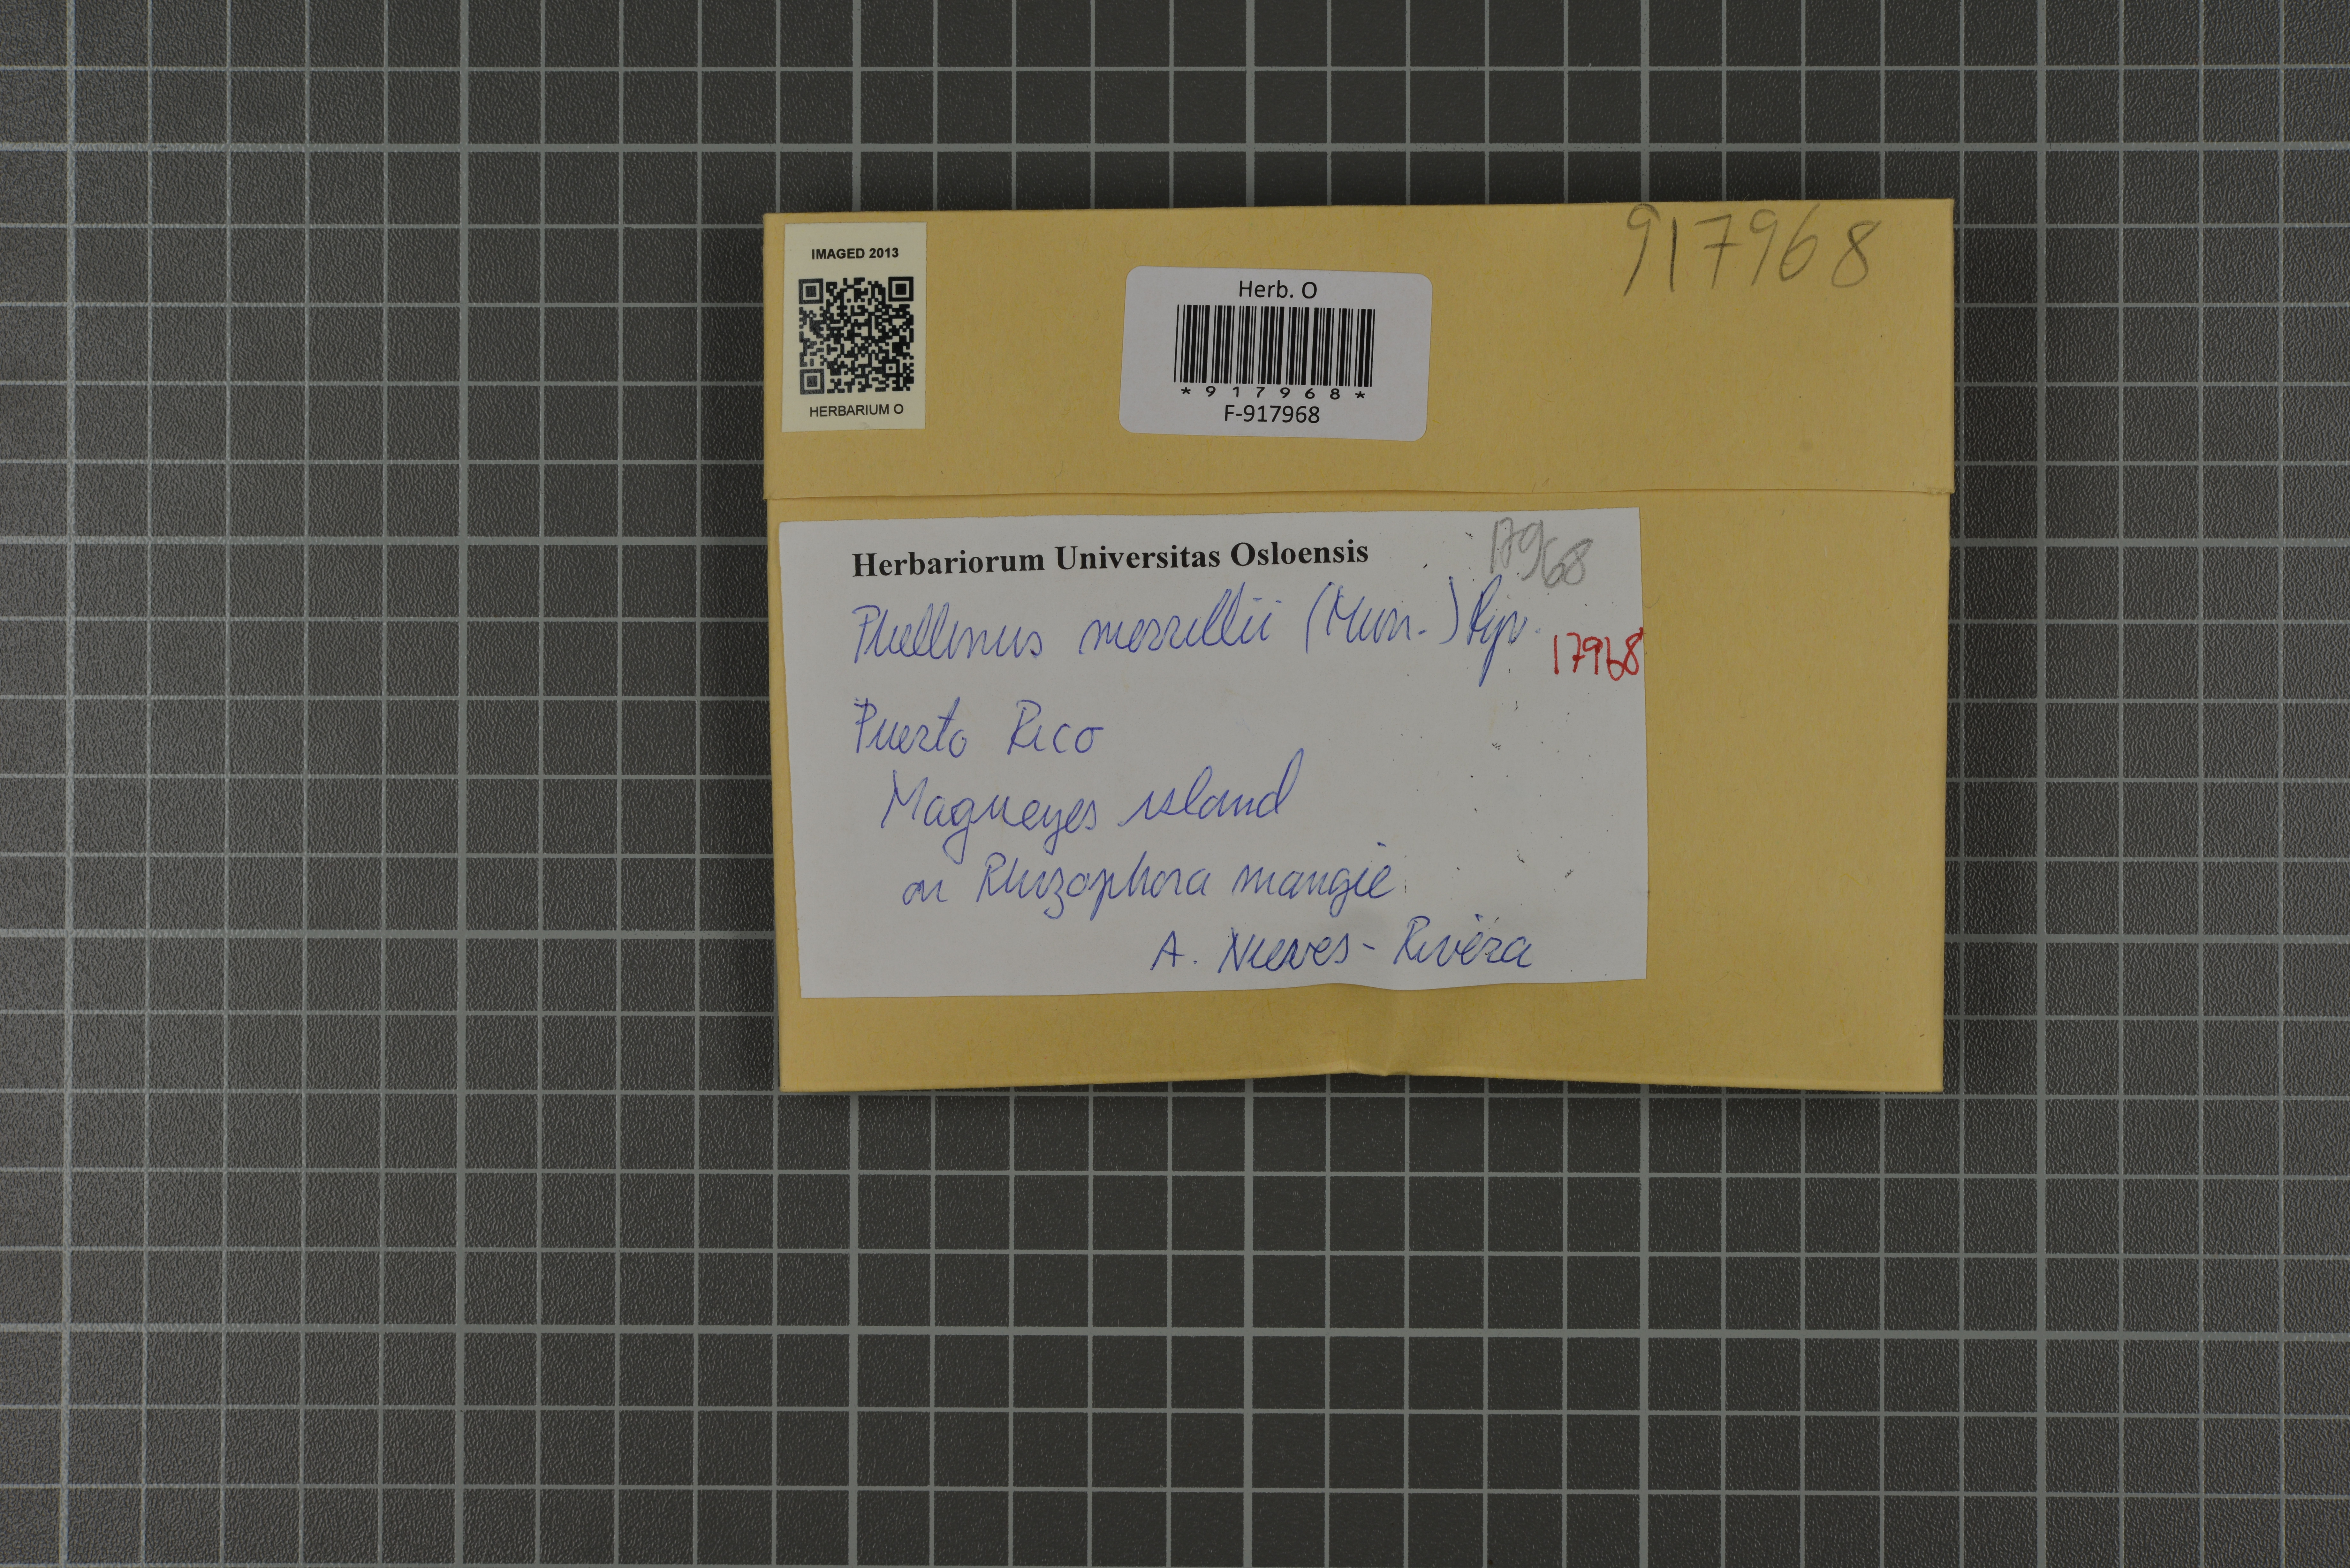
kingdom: Fungi
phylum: Basidiomycota
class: Agaricomycetes
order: Hymenochaetales
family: Hymenochaetaceae
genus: Fulvifomes
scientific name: Fulvifomes merrillii
